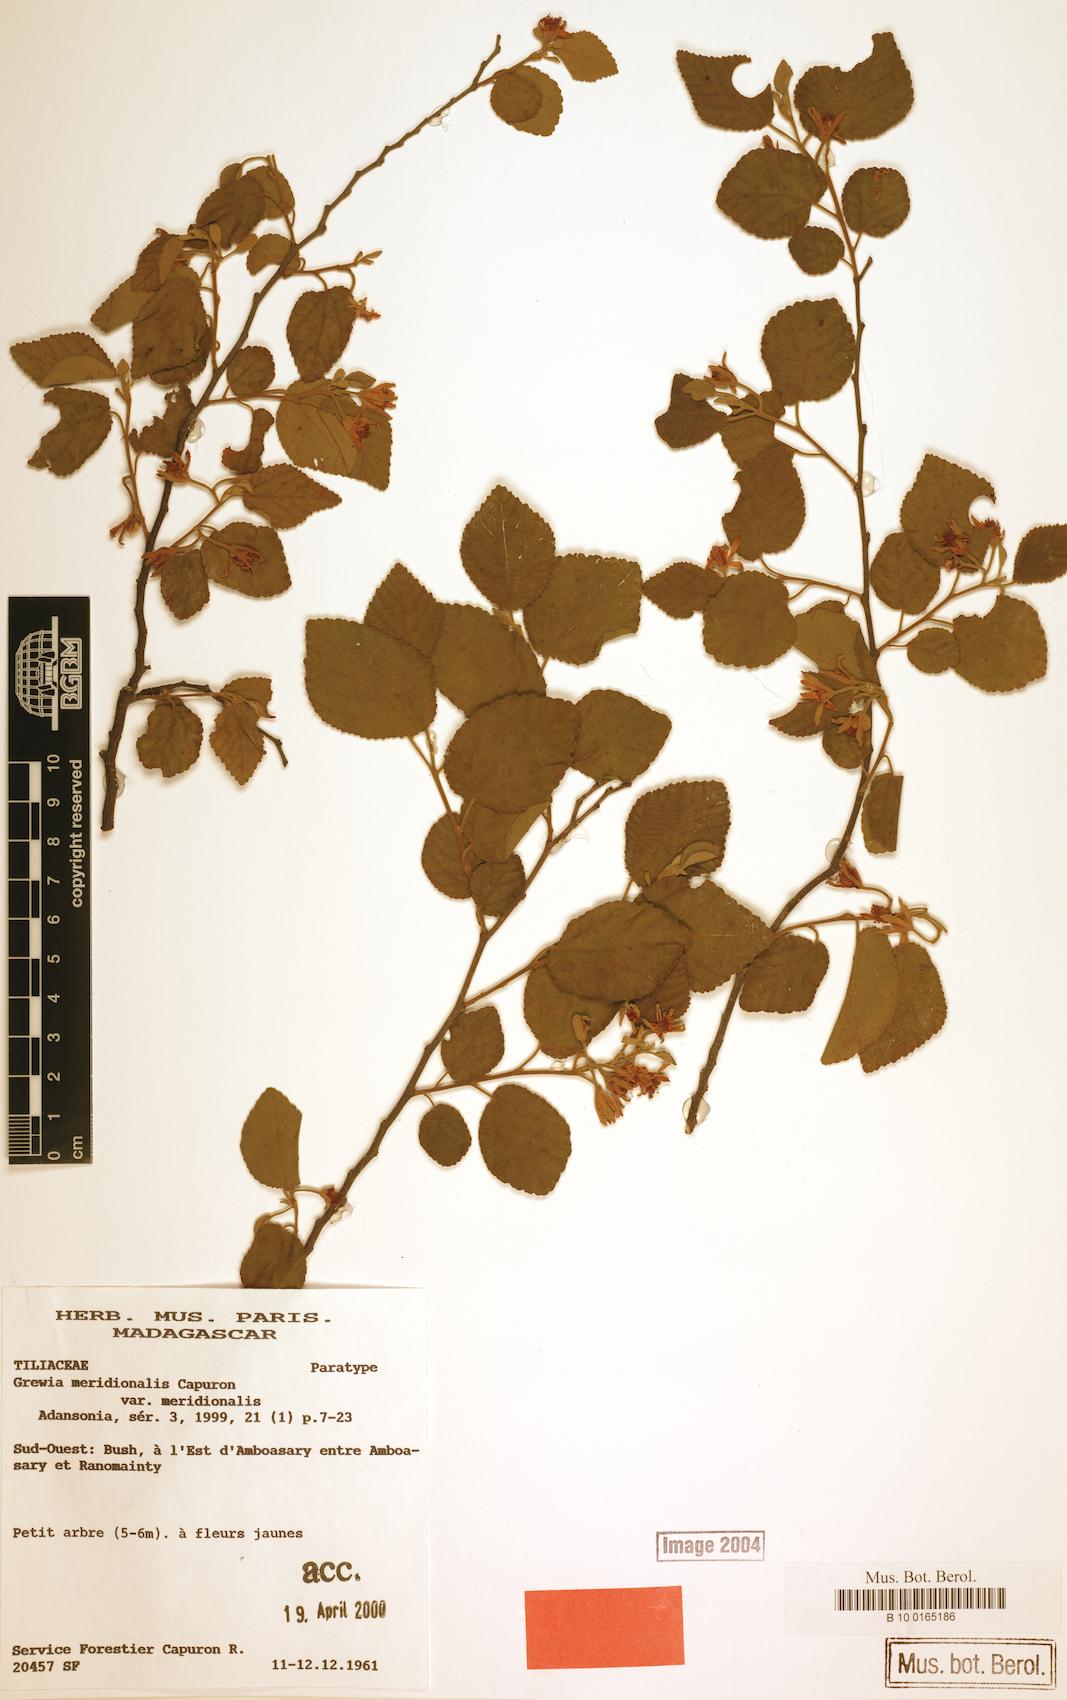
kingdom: Plantae
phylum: Tracheophyta
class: Magnoliopsida
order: Malvales
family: Malvaceae
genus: Grewia
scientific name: Grewia meridionalis
